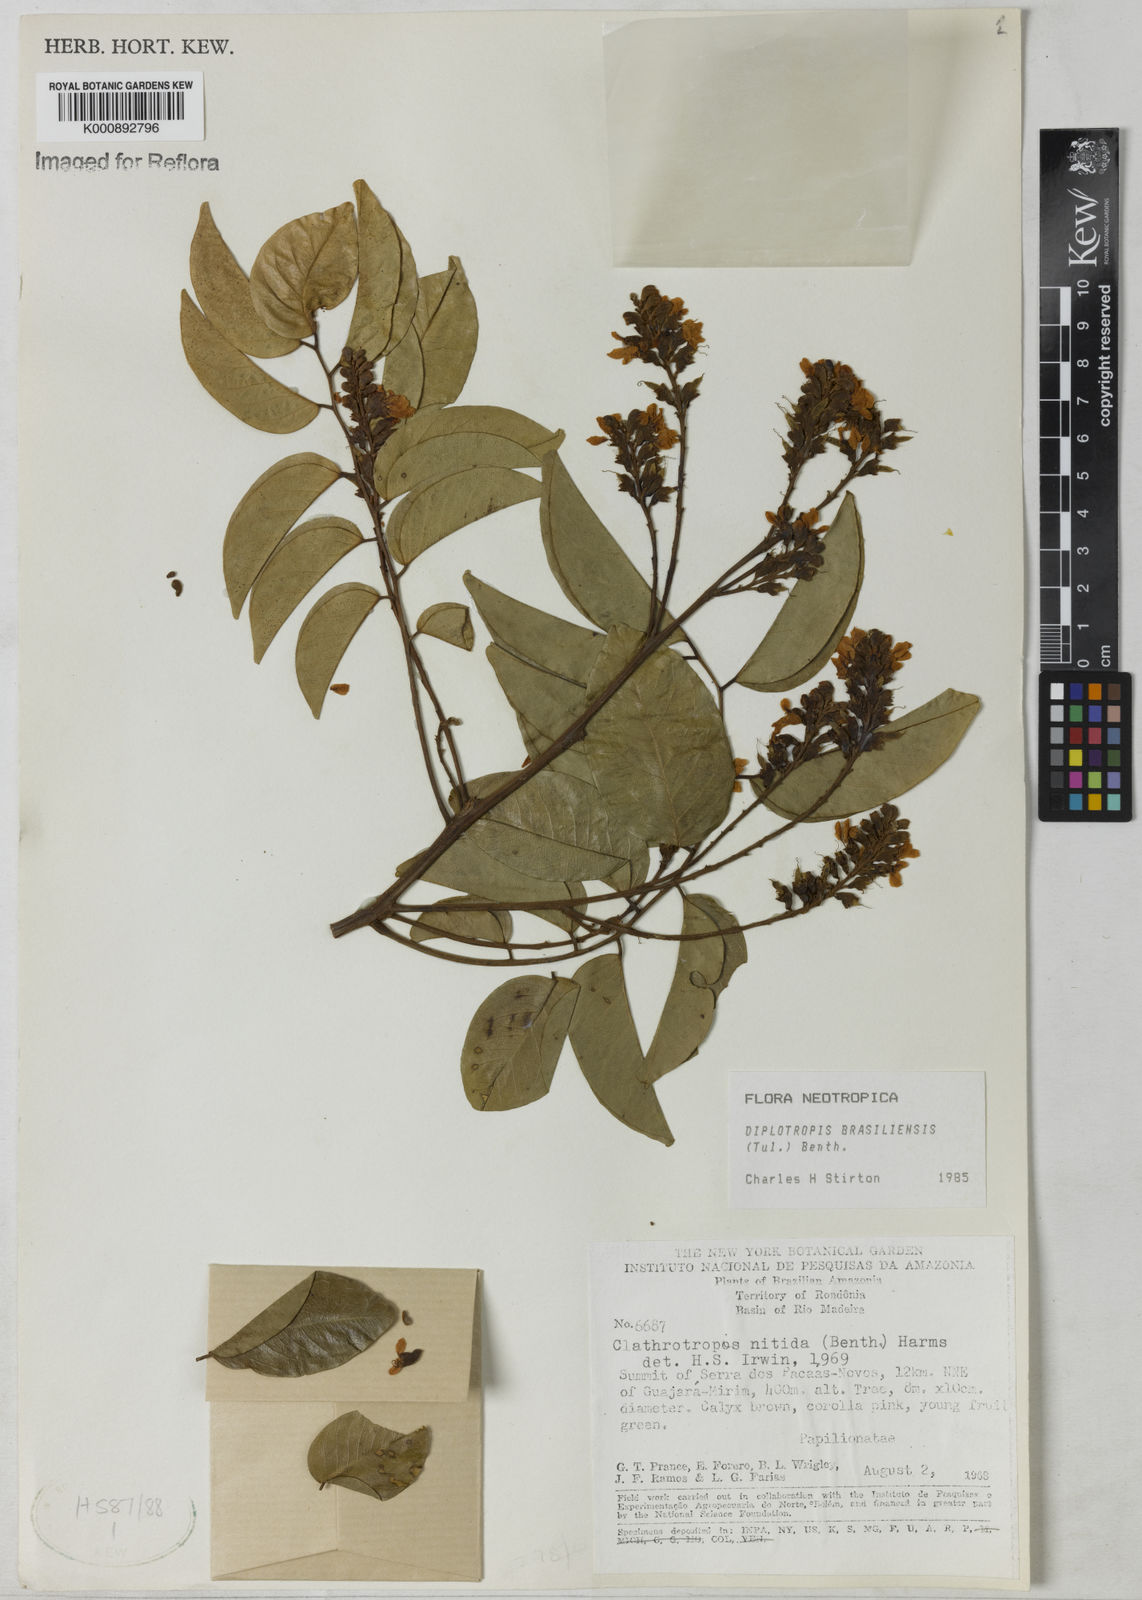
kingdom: Plantae
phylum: Tracheophyta
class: Magnoliopsida
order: Fabales
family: Fabaceae
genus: Diplotropis
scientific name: Diplotropis brasiliensis
